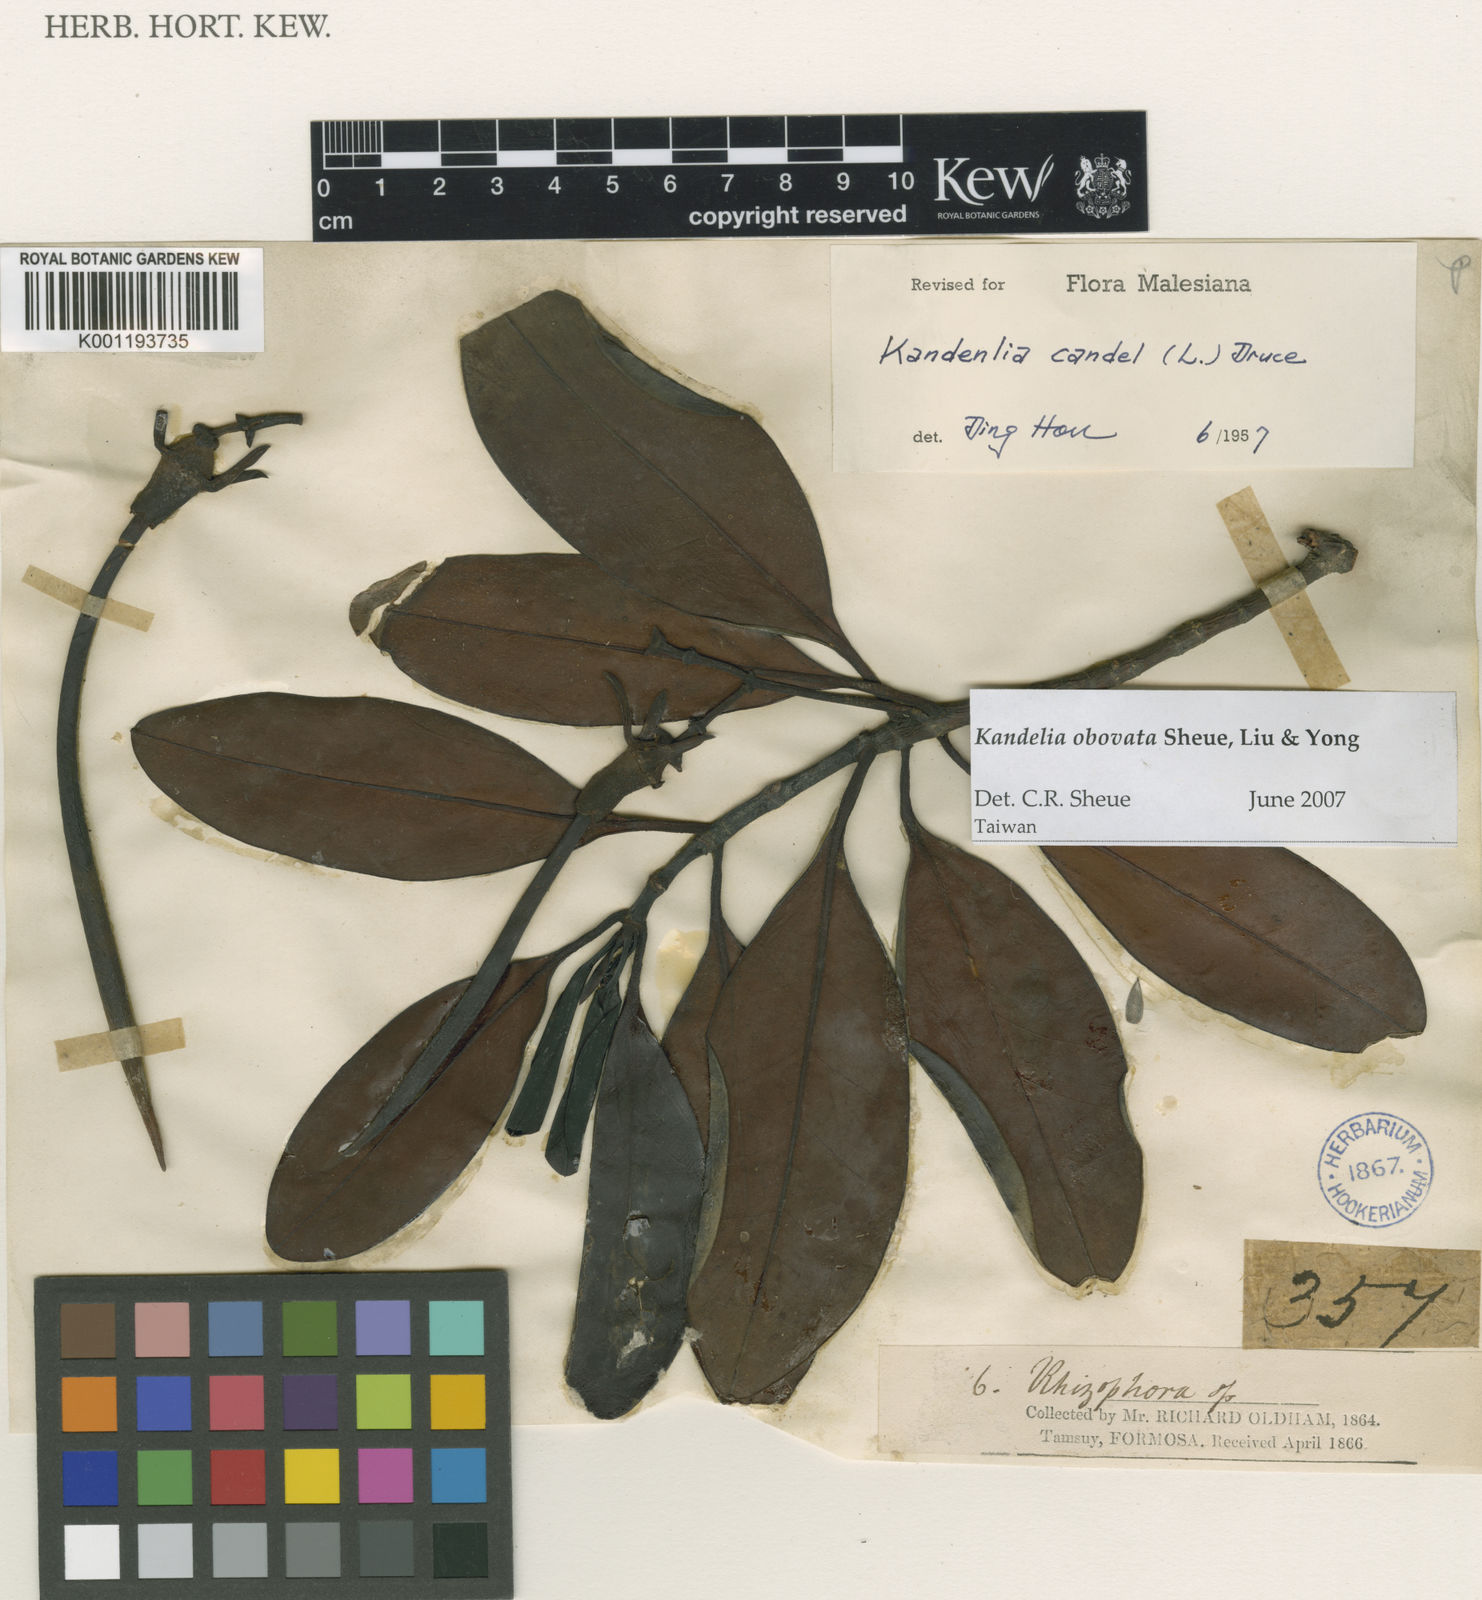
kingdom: Plantae
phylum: Tracheophyta
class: Magnoliopsida
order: Malpighiales
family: Rhizophoraceae
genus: Kandelia
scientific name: Kandelia obovata
